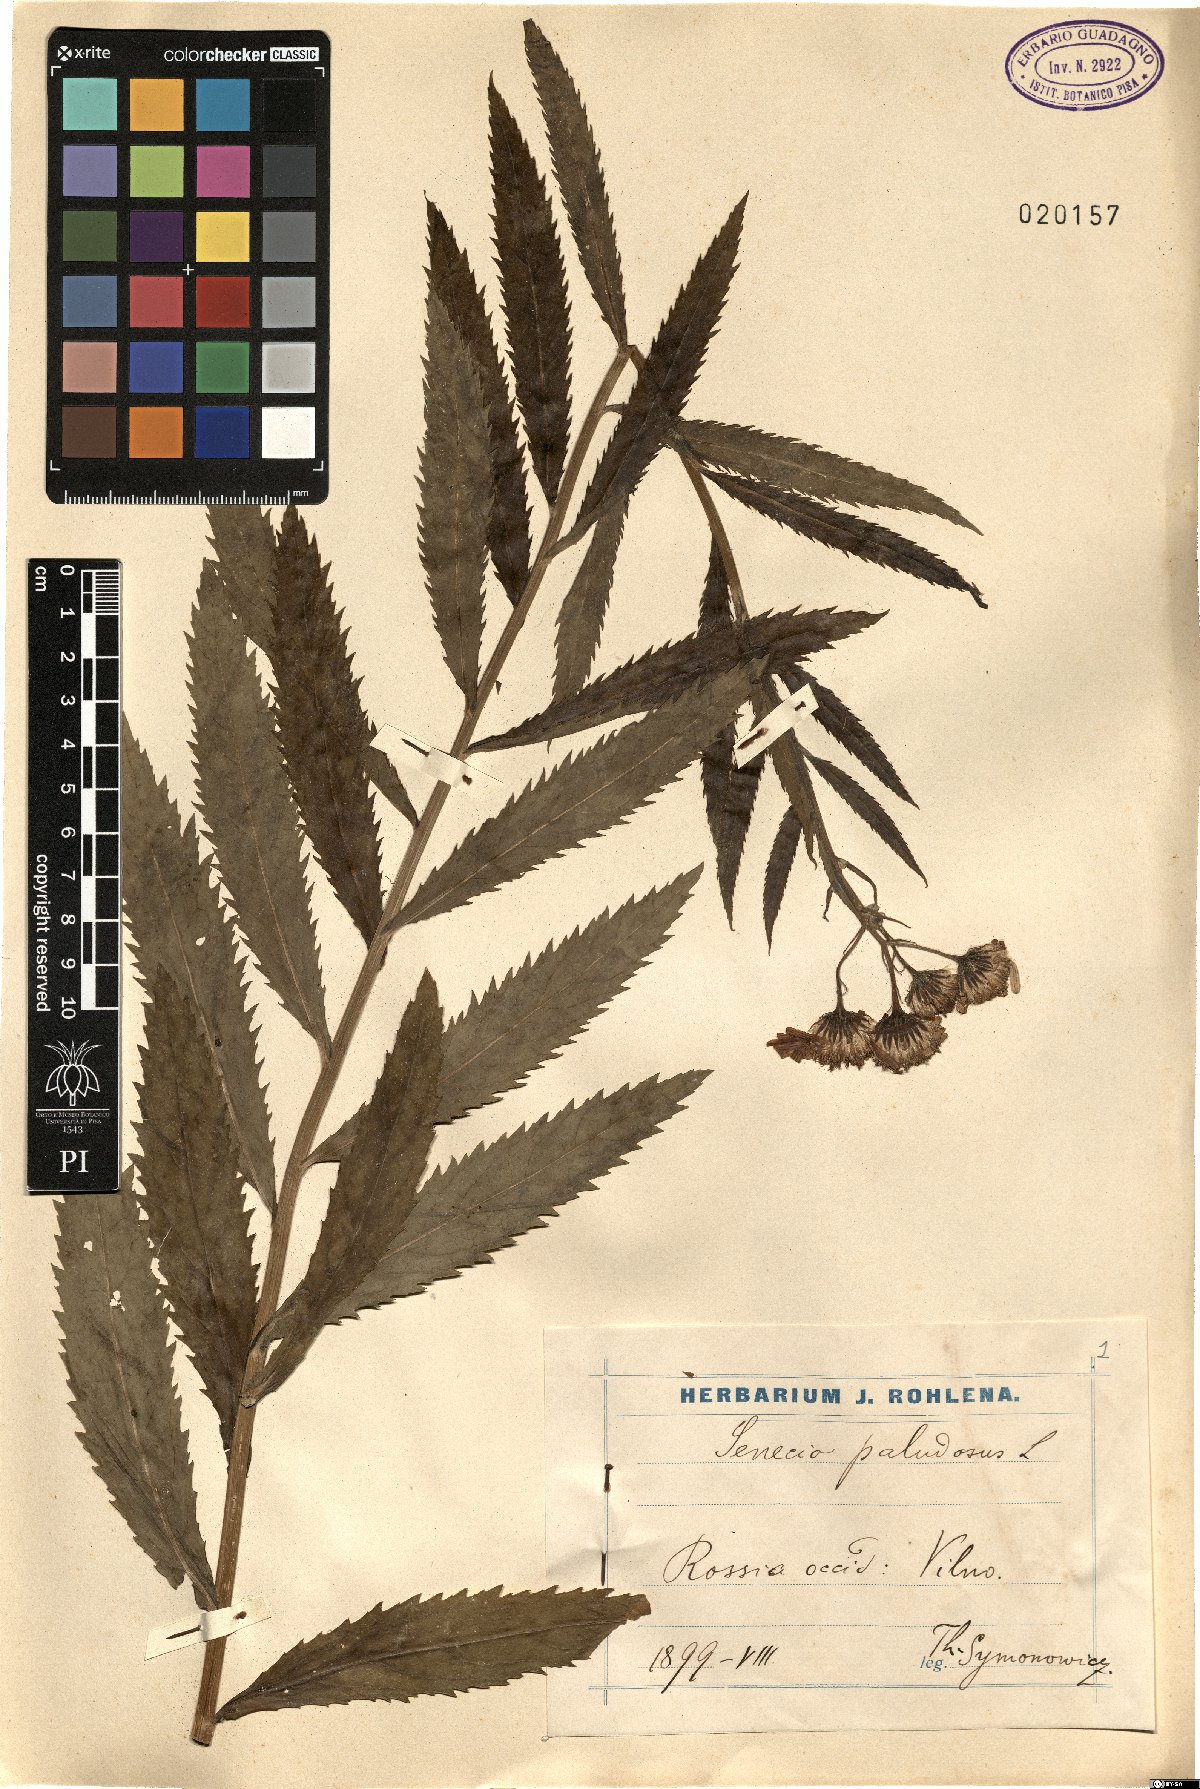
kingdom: Plantae
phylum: Tracheophyta
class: Magnoliopsida
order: Asterales
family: Asteraceae
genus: Jacobaea
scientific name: Jacobaea paludosa
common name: Fen ragwort
